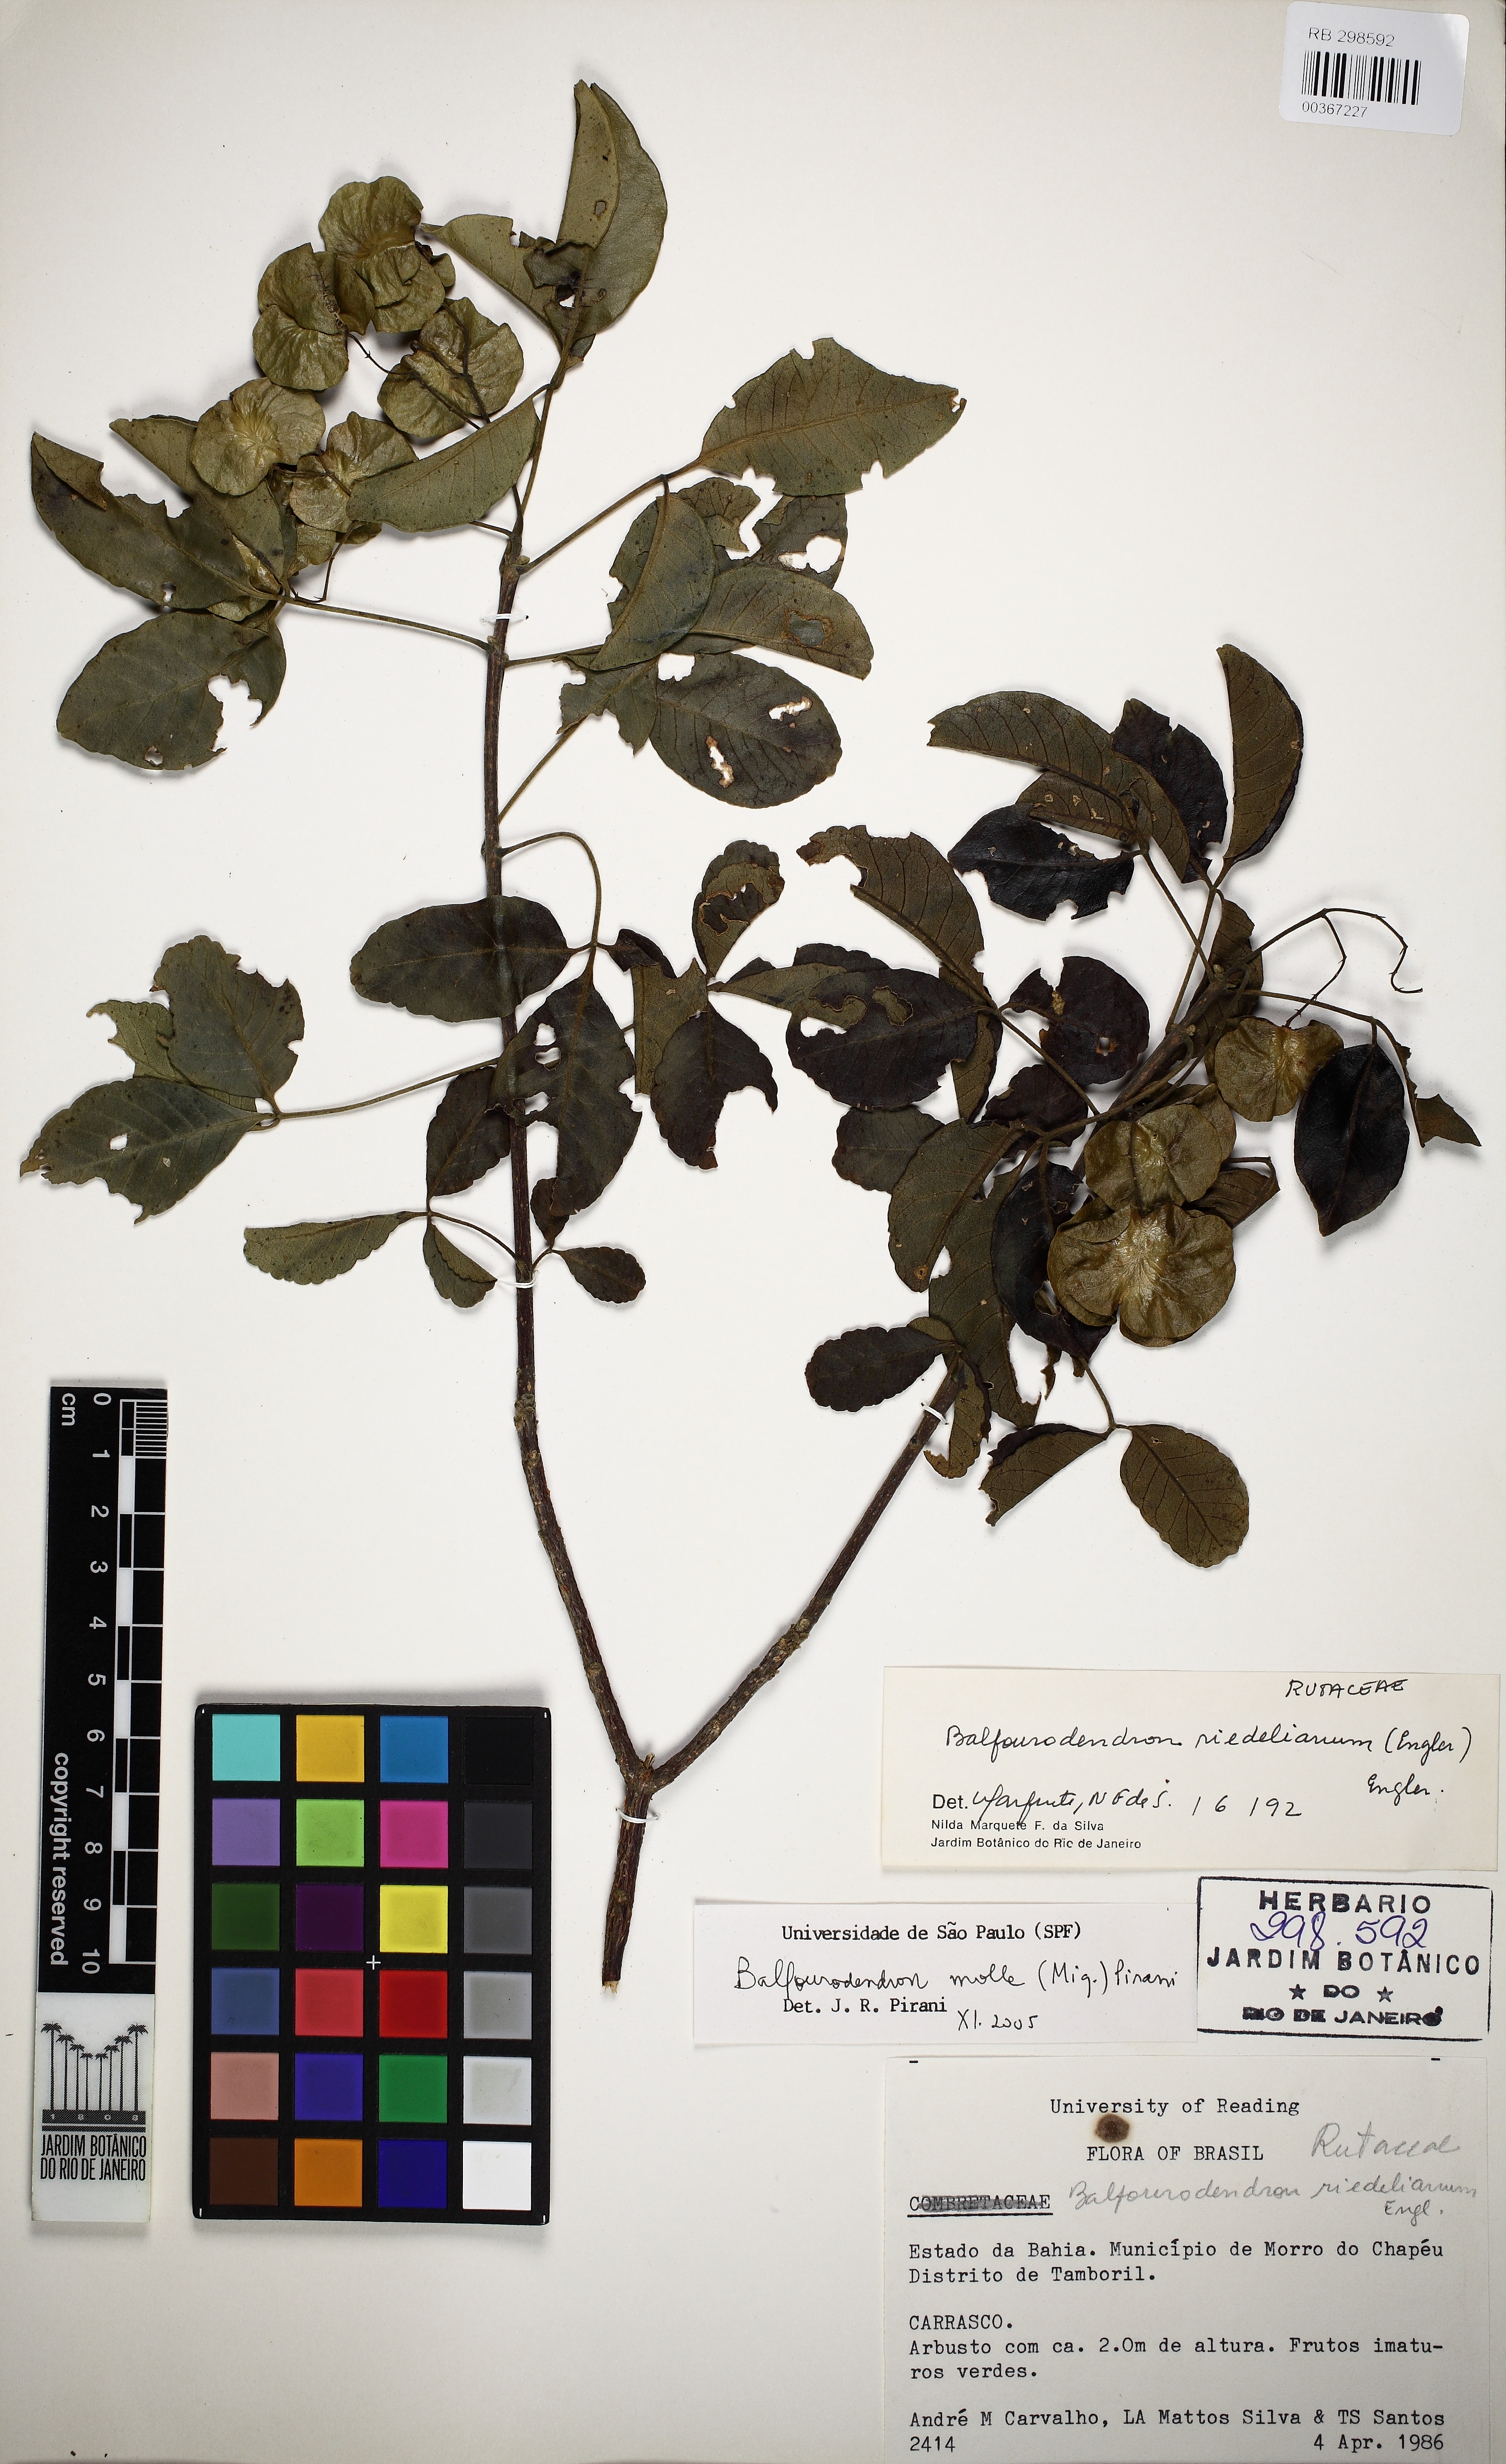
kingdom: Plantae
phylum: Tracheophyta
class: Magnoliopsida
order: Sapindales
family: Rutaceae
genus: Balfourodendron
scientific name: Balfourodendron molle
